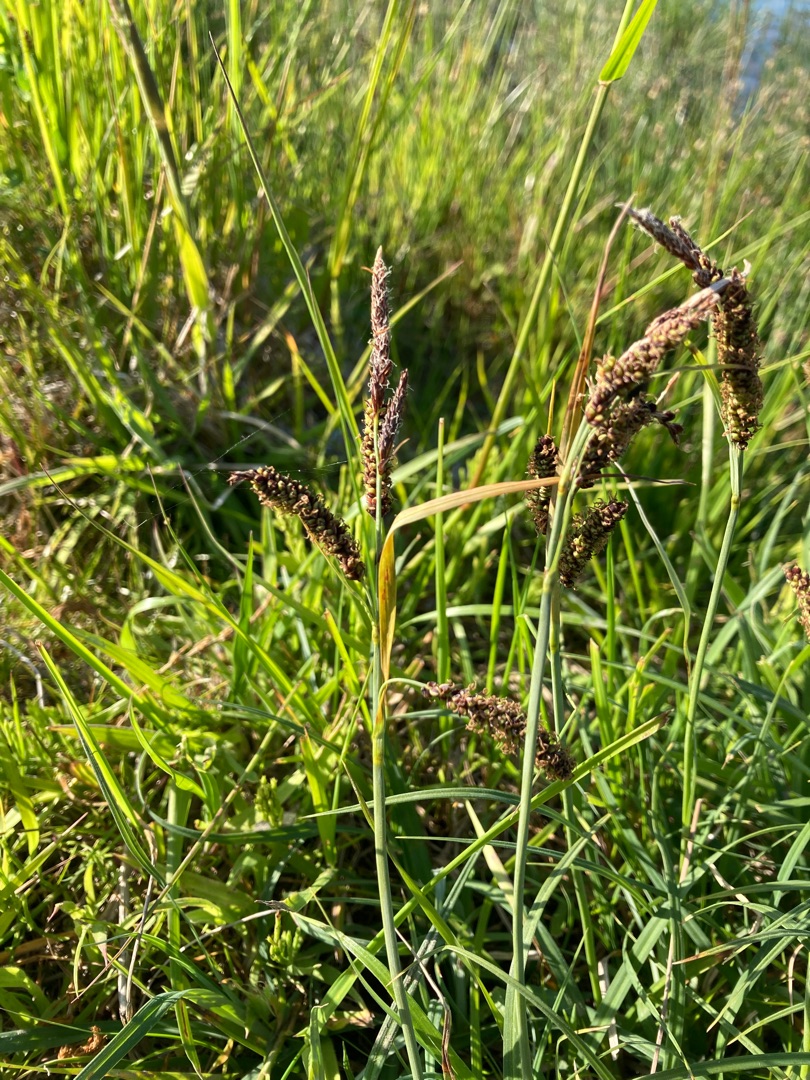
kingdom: Plantae
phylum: Tracheophyta
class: Liliopsida
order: Poales
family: Cyperaceae
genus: Carex
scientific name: Carex flacca
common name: Blågrøn star
